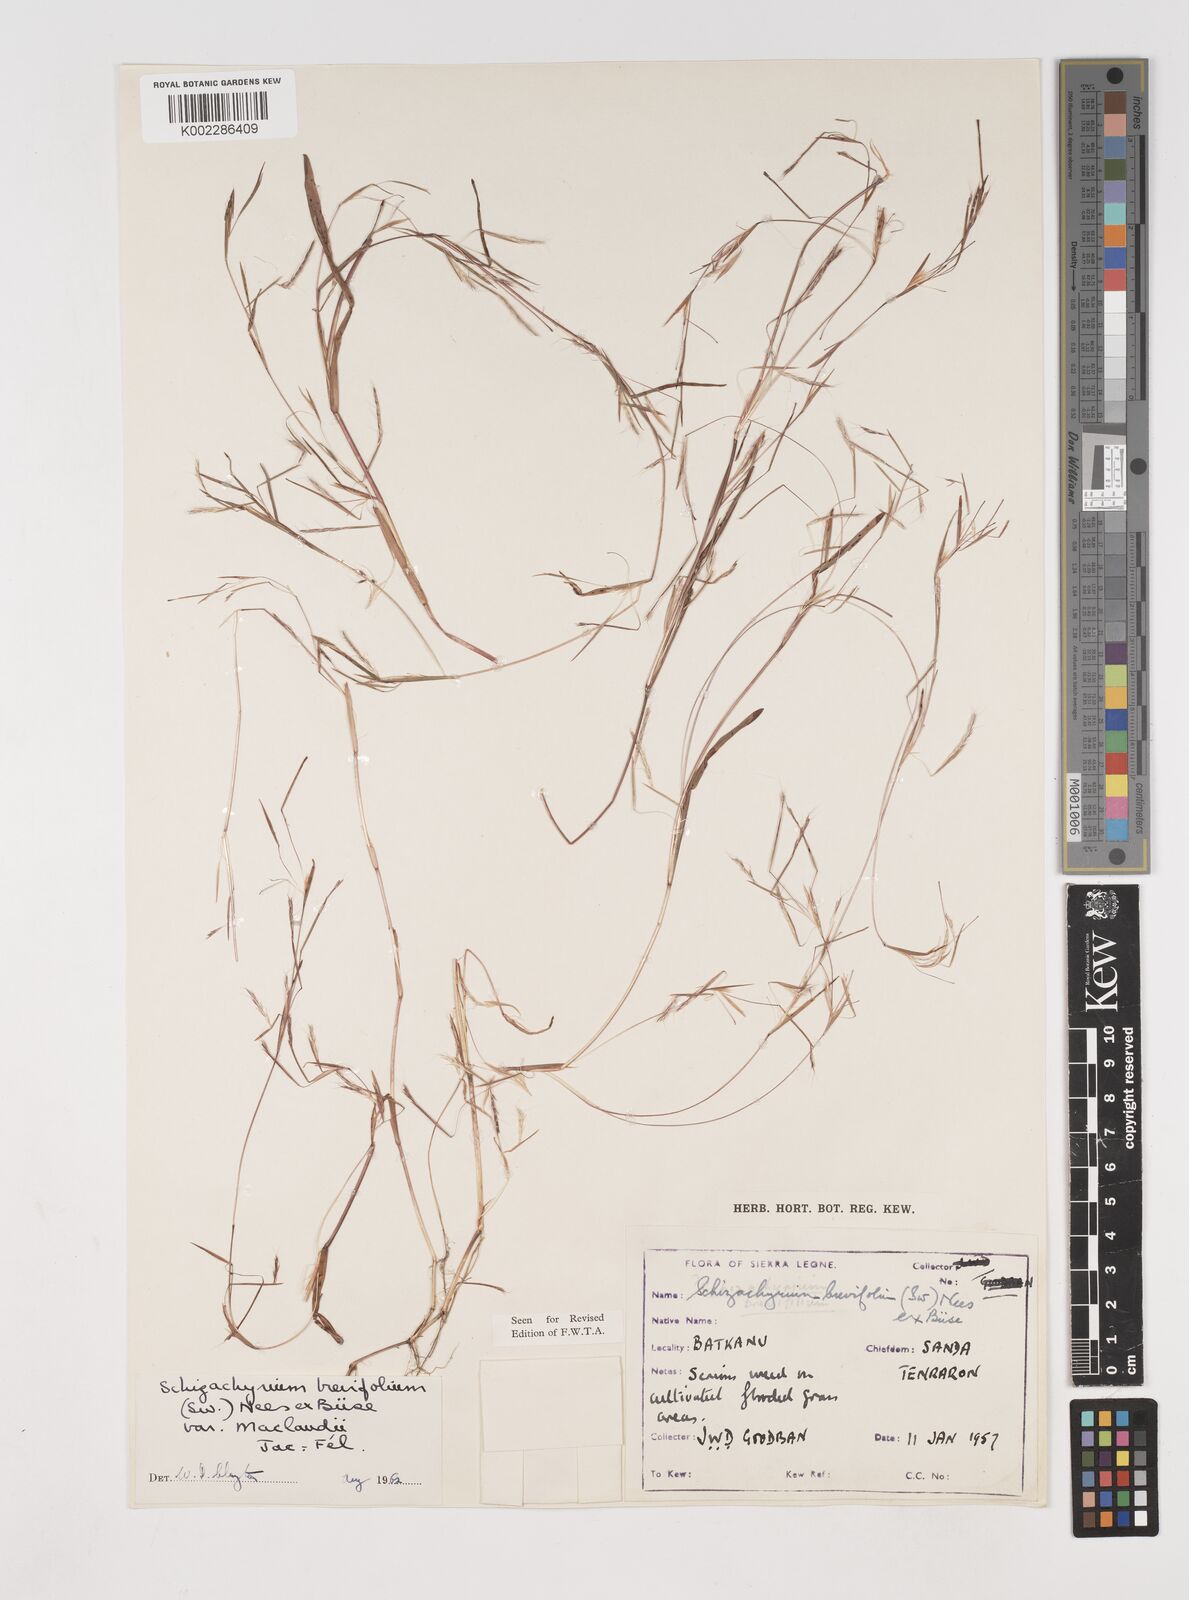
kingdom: Plantae
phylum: Tracheophyta
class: Liliopsida
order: Poales
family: Poaceae
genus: Schizachyrium
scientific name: Schizachyrium maclaudii
